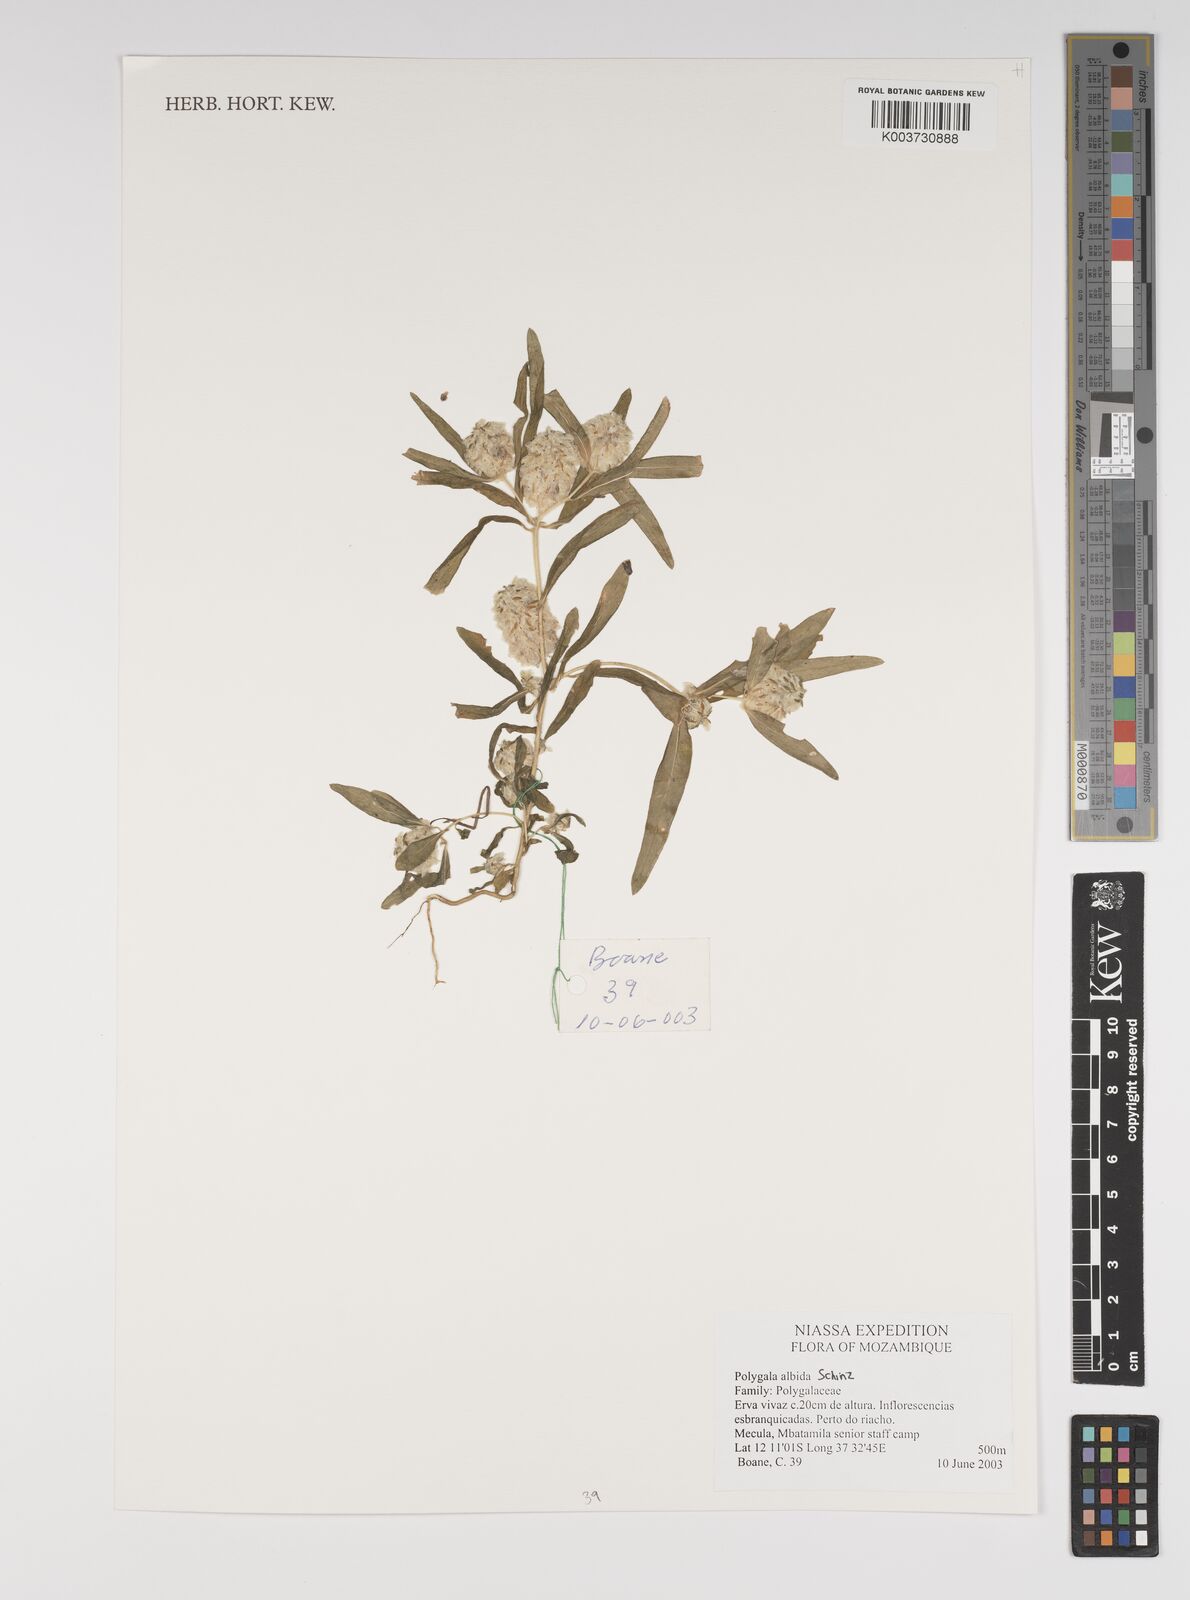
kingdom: Plantae
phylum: Tracheophyta
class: Magnoliopsida
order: Fabales
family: Polygalaceae
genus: Polygala
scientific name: Polygala albida
